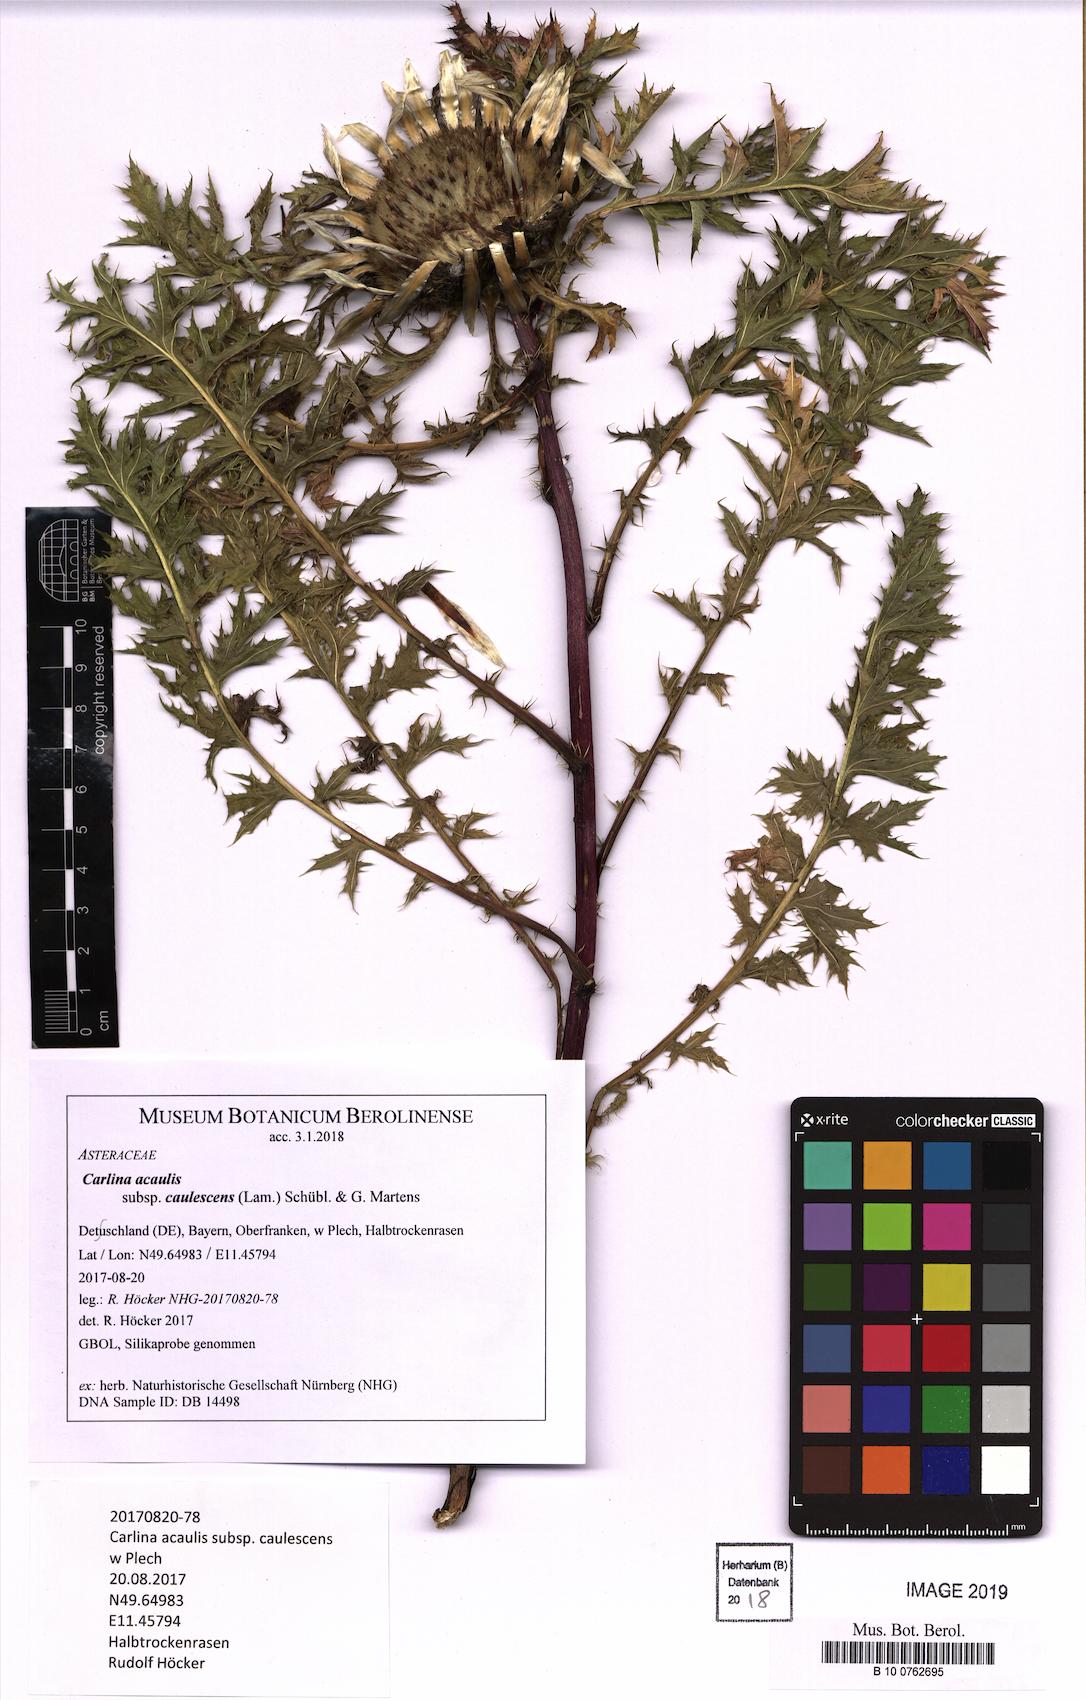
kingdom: Plantae
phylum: Tracheophyta
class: Magnoliopsida
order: Asterales
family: Asteraceae
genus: Carlina
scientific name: Carlina acaulis
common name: Stemless carline thistle
